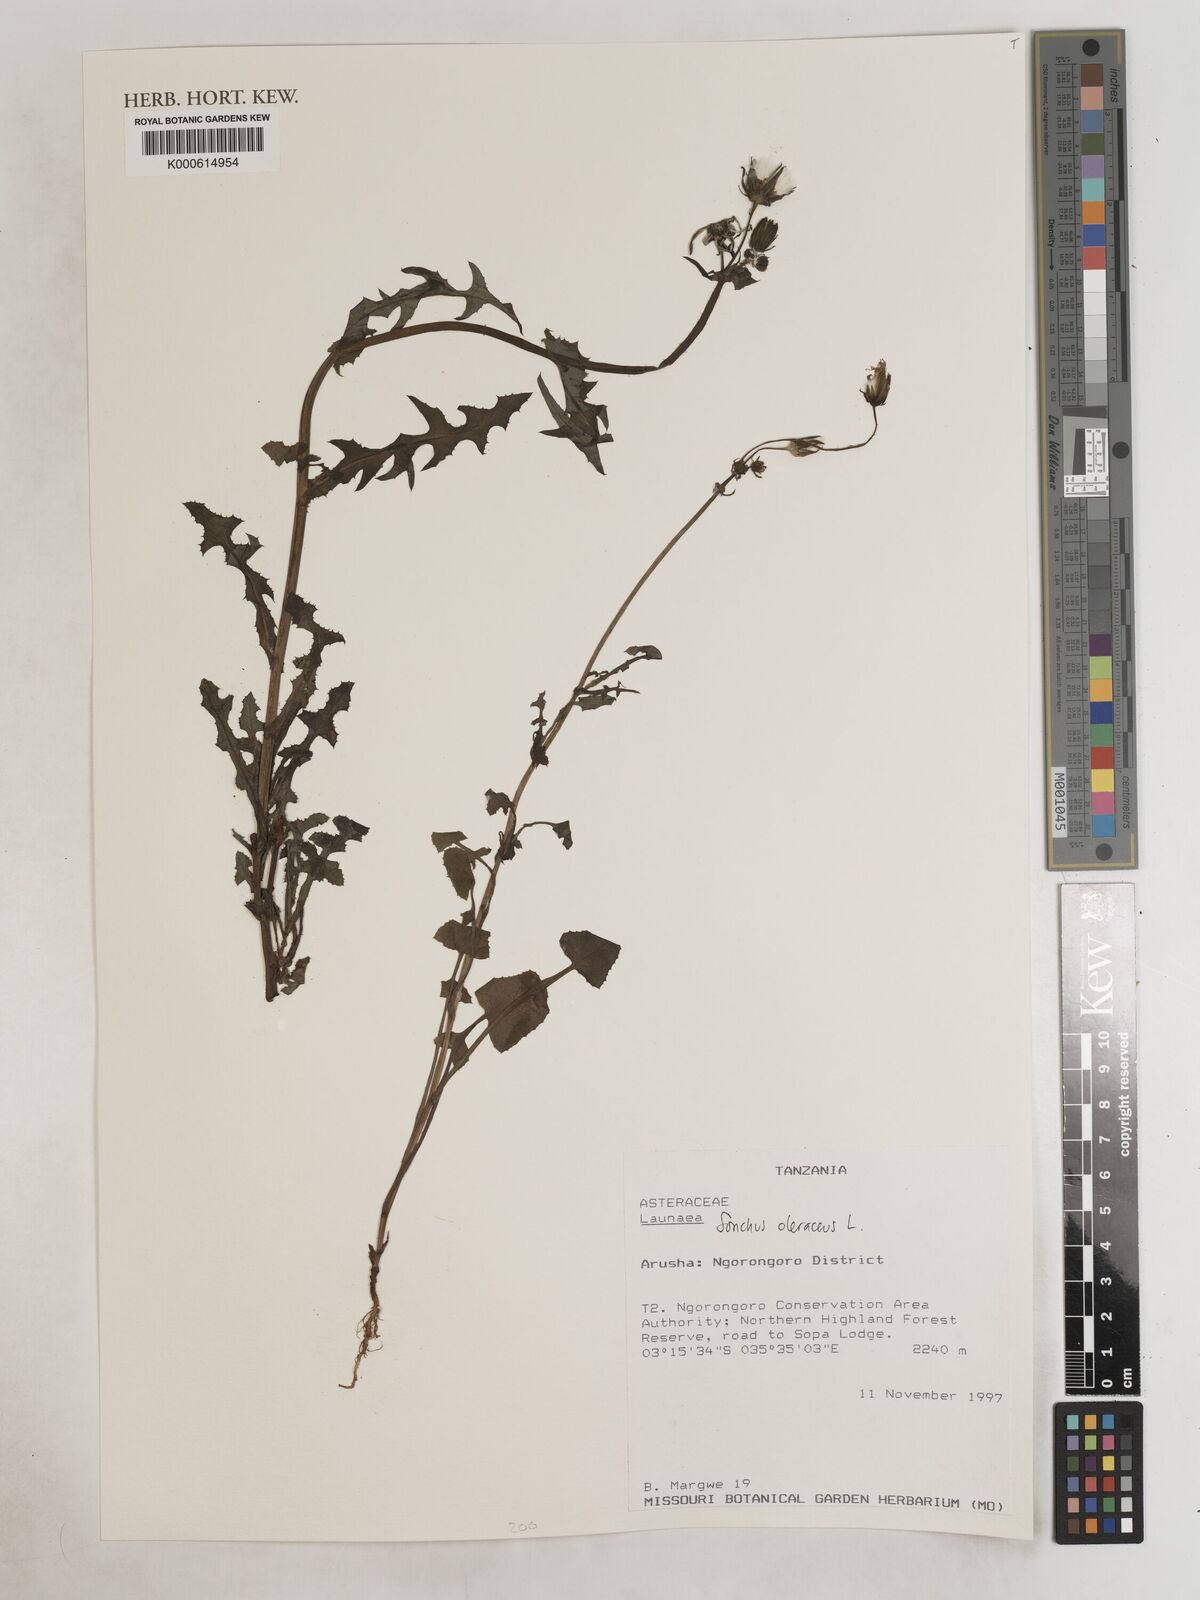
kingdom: Plantae
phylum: Tracheophyta
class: Magnoliopsida
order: Asterales
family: Asteraceae
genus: Sonchus
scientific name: Sonchus oleraceus
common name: Common sowthistle
